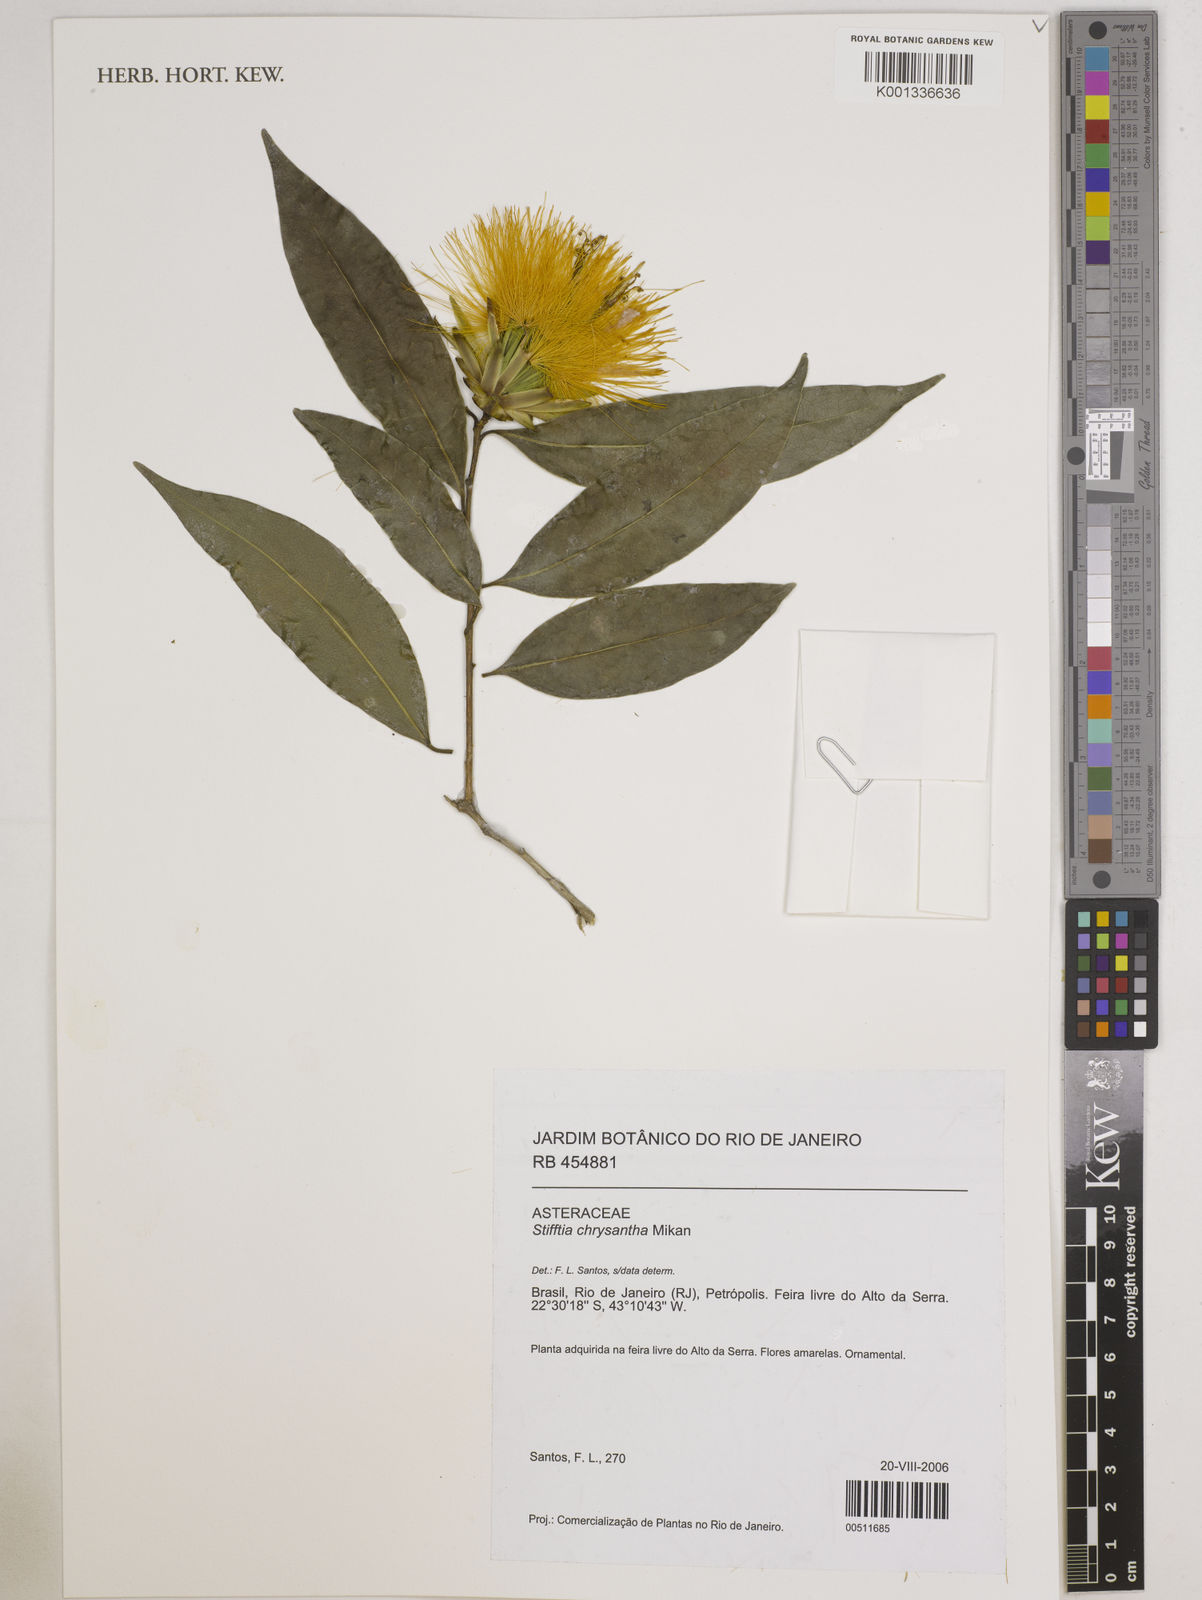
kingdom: Plantae
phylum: Tracheophyta
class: Magnoliopsida
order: Asterales
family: Asteraceae
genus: Stifftia
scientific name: Stifftia chrysantha
